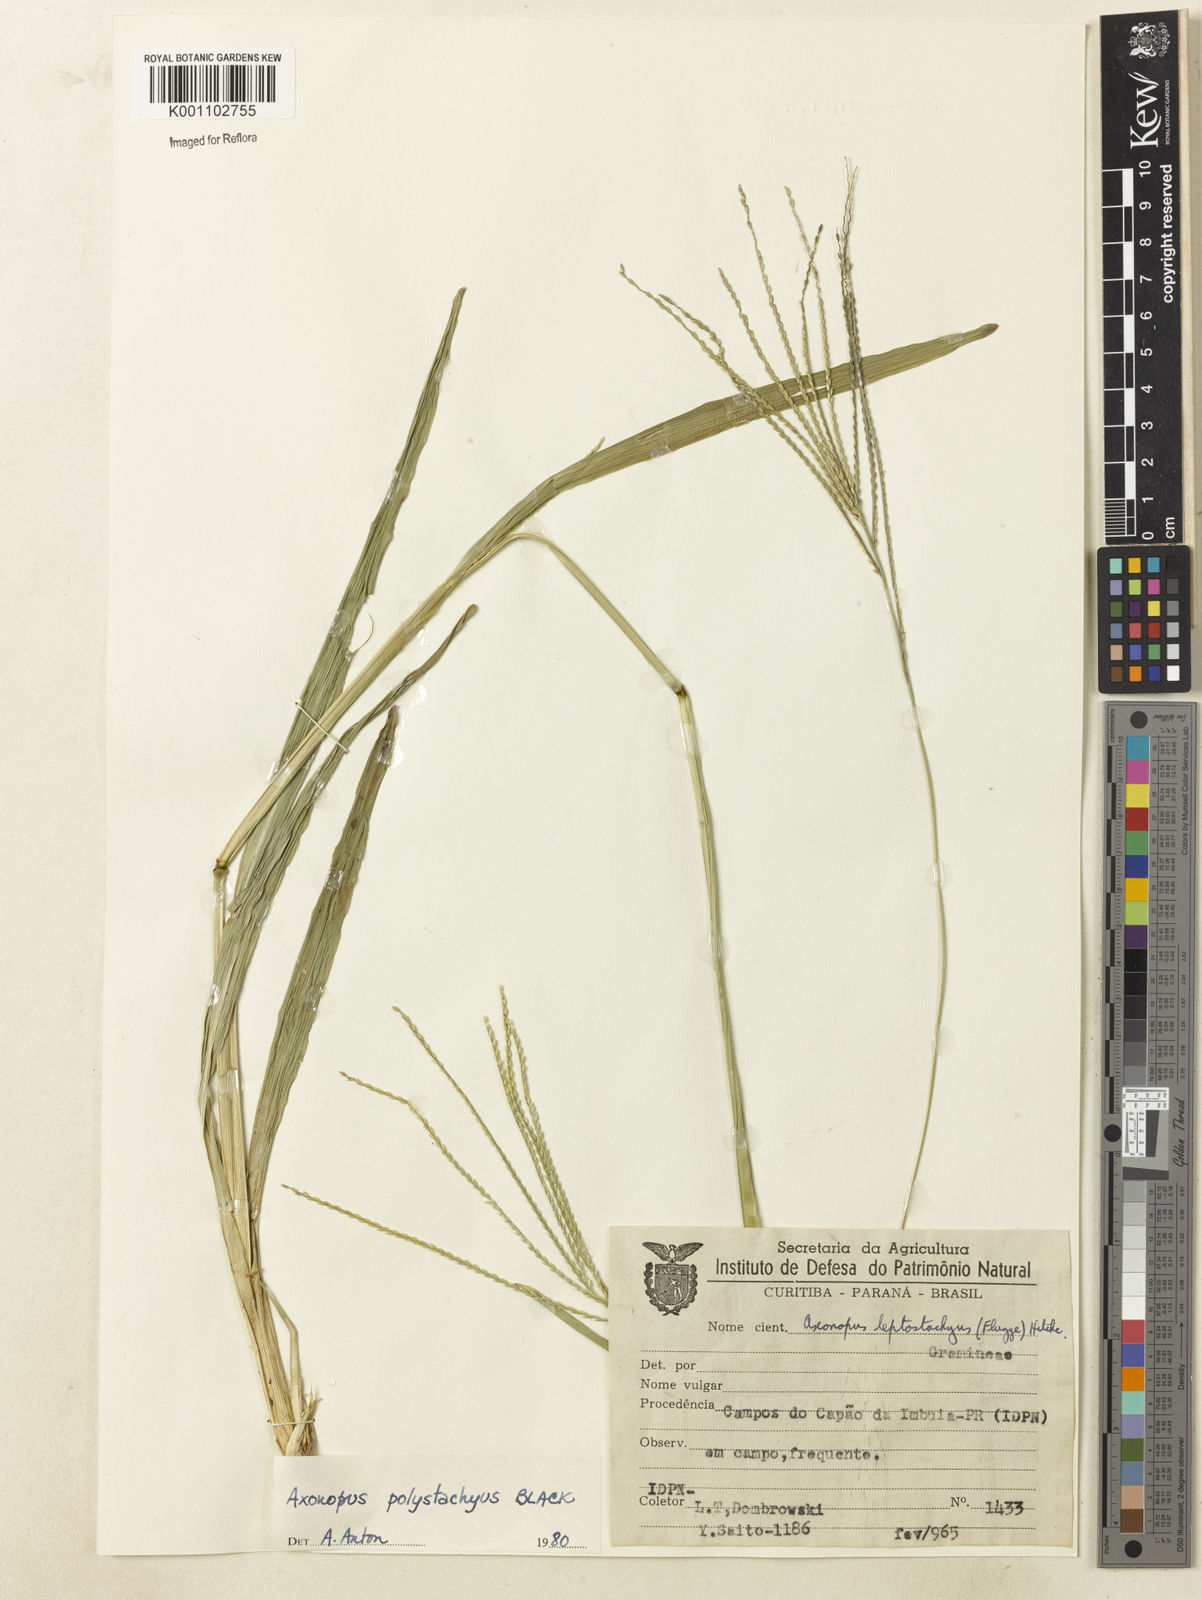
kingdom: Plantae
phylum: Tracheophyta
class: Liliopsida
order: Poales
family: Poaceae
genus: Axonopus
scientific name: Axonopus polystachyus
